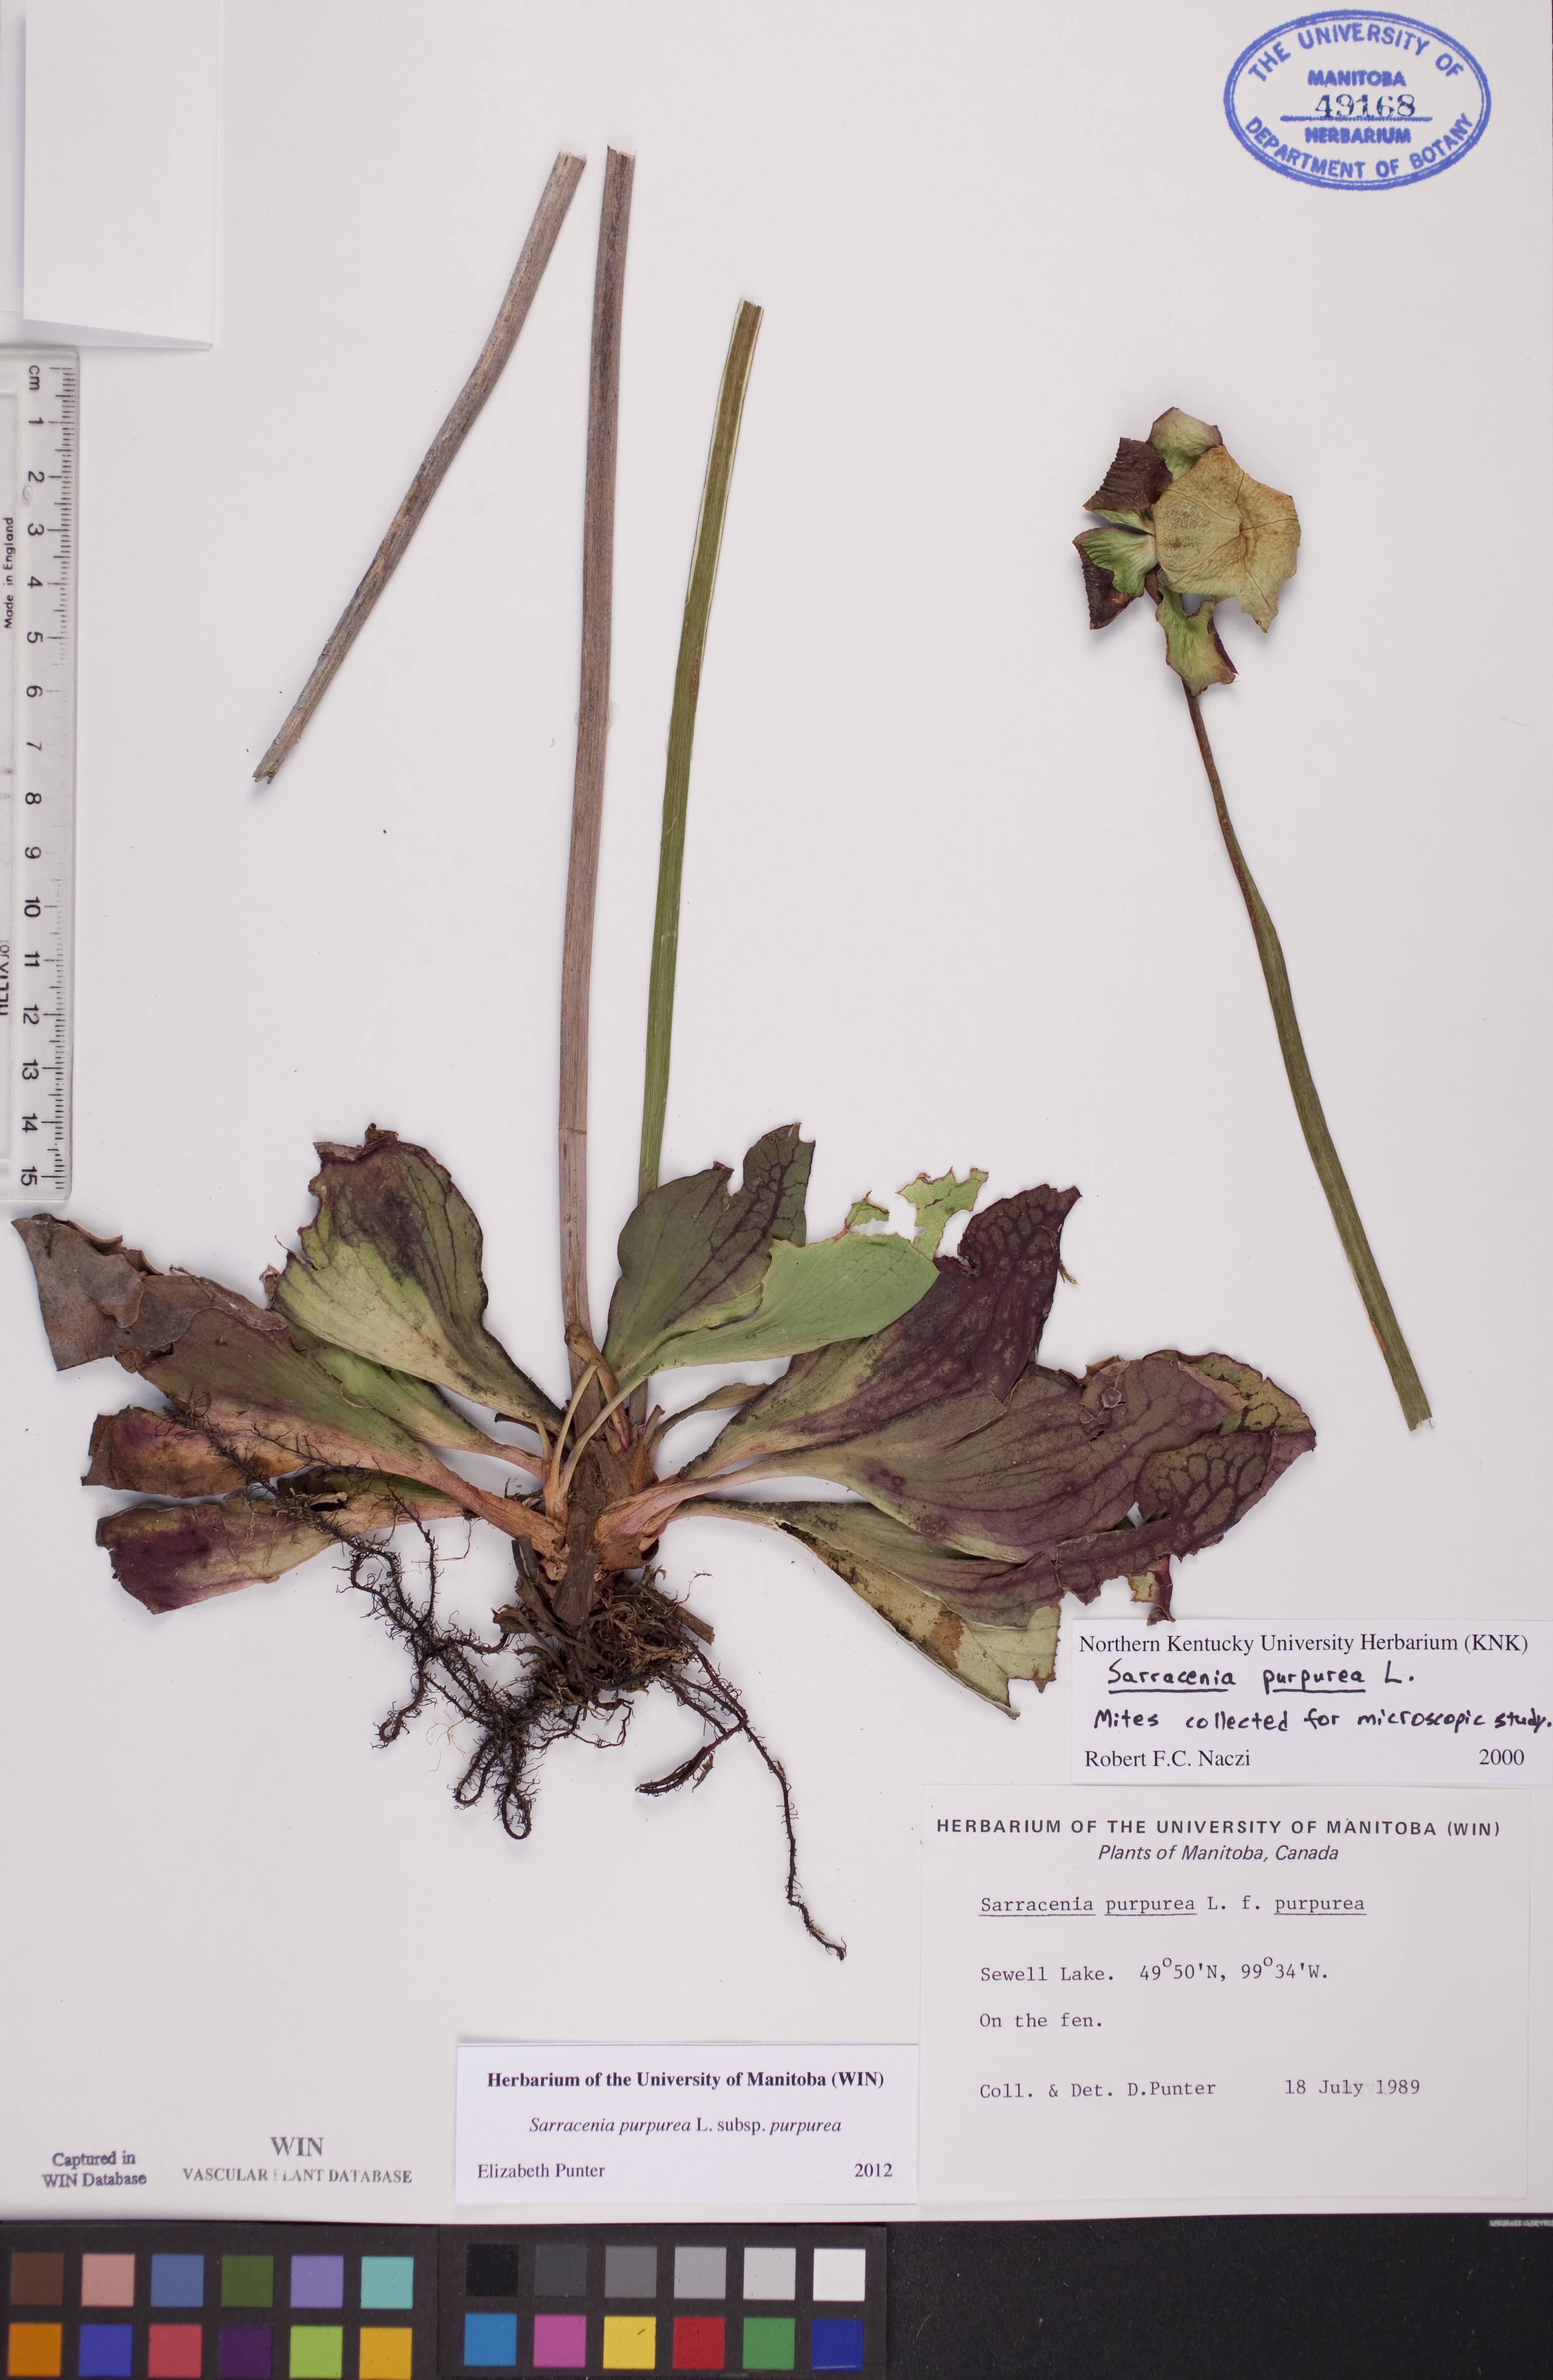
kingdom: Plantae
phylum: Tracheophyta
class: Magnoliopsida
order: Ericales
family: Sarraceniaceae
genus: Sarracenia
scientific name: Sarracenia purpurea
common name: Pitcherplant
